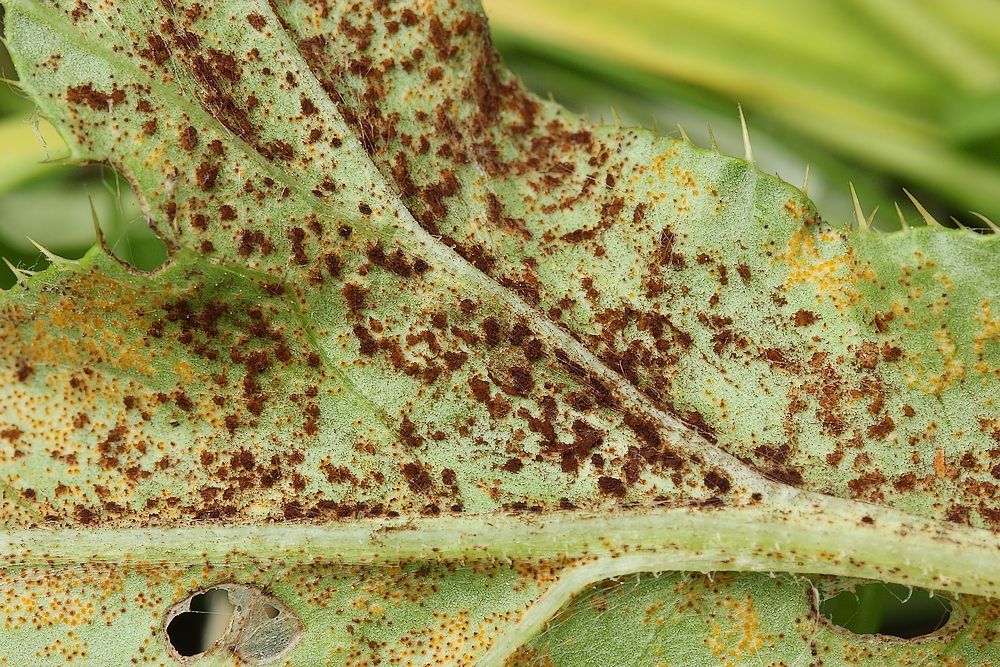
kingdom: Fungi
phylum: Basidiomycota
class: Pucciniomycetes
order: Pucciniales
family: Pucciniaceae
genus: Puccinia
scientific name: Puccinia suaveolens
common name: tidsel-tvecellerust
